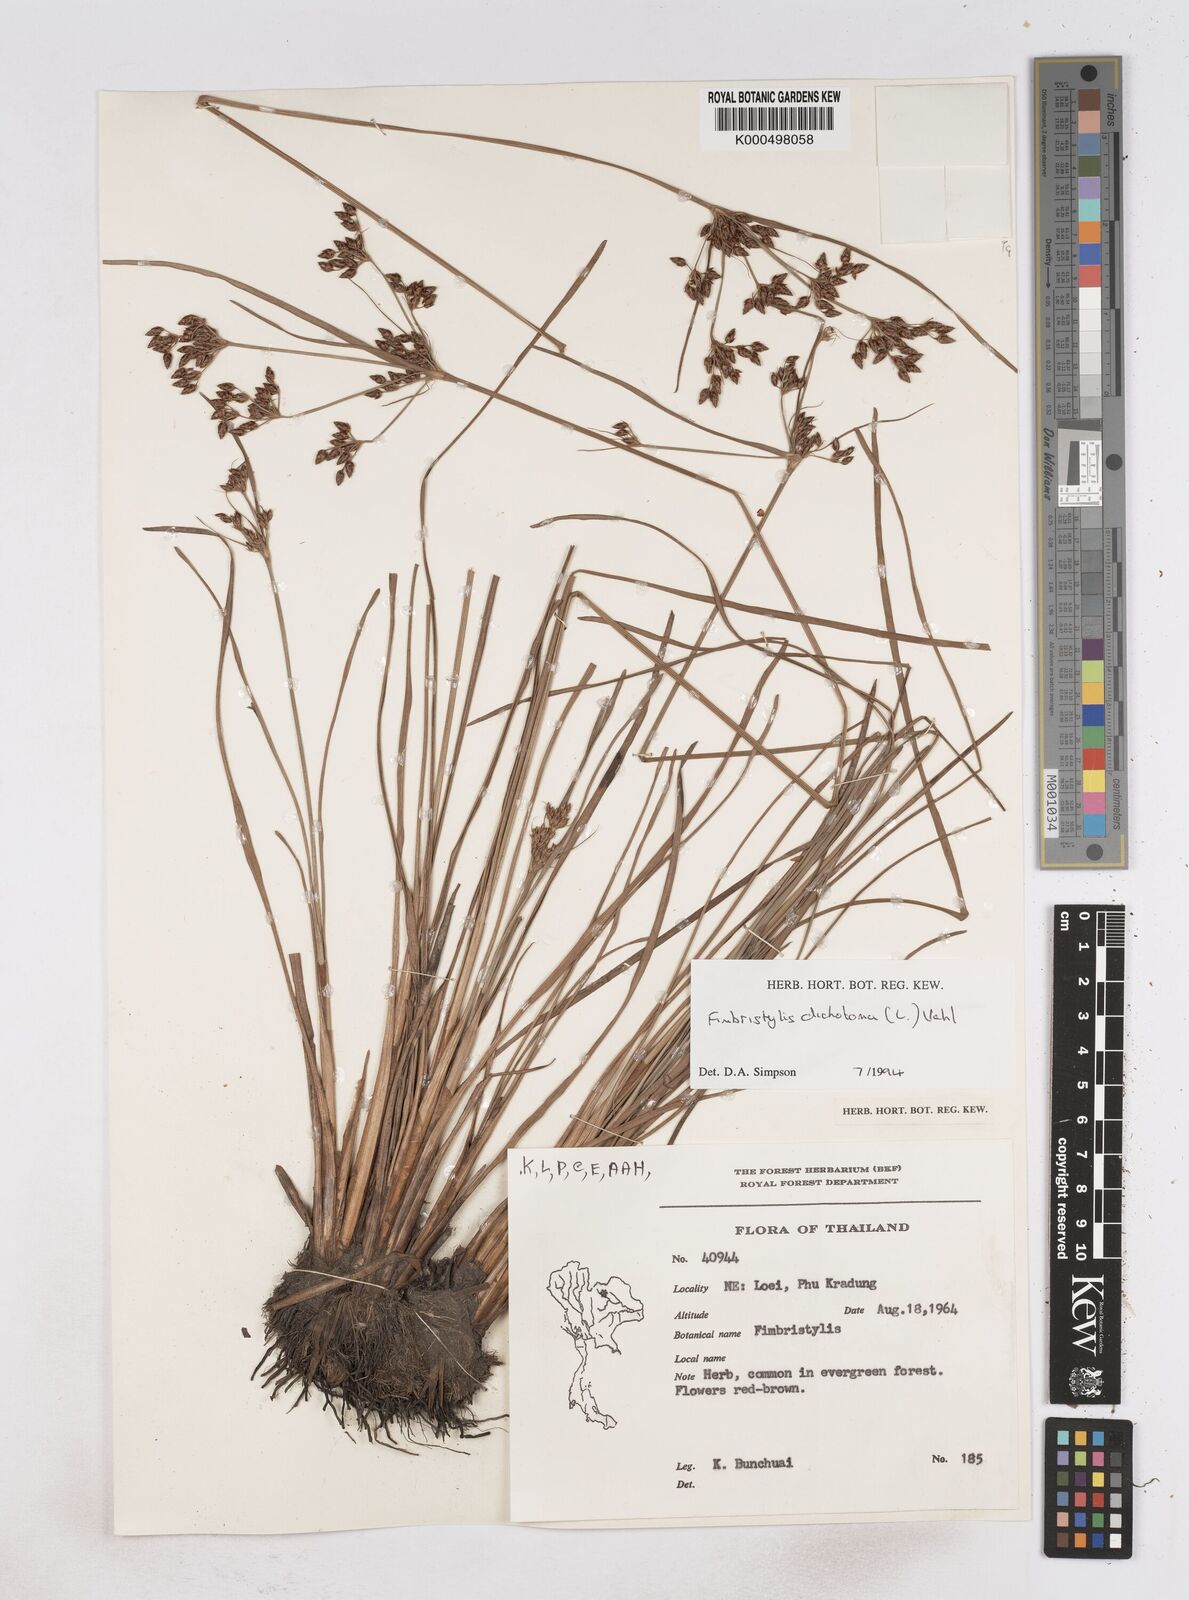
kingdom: Plantae
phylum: Tracheophyta
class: Liliopsida
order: Poales
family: Cyperaceae
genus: Fimbristylis
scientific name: Fimbristylis dichotoma
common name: Forked fimbry
